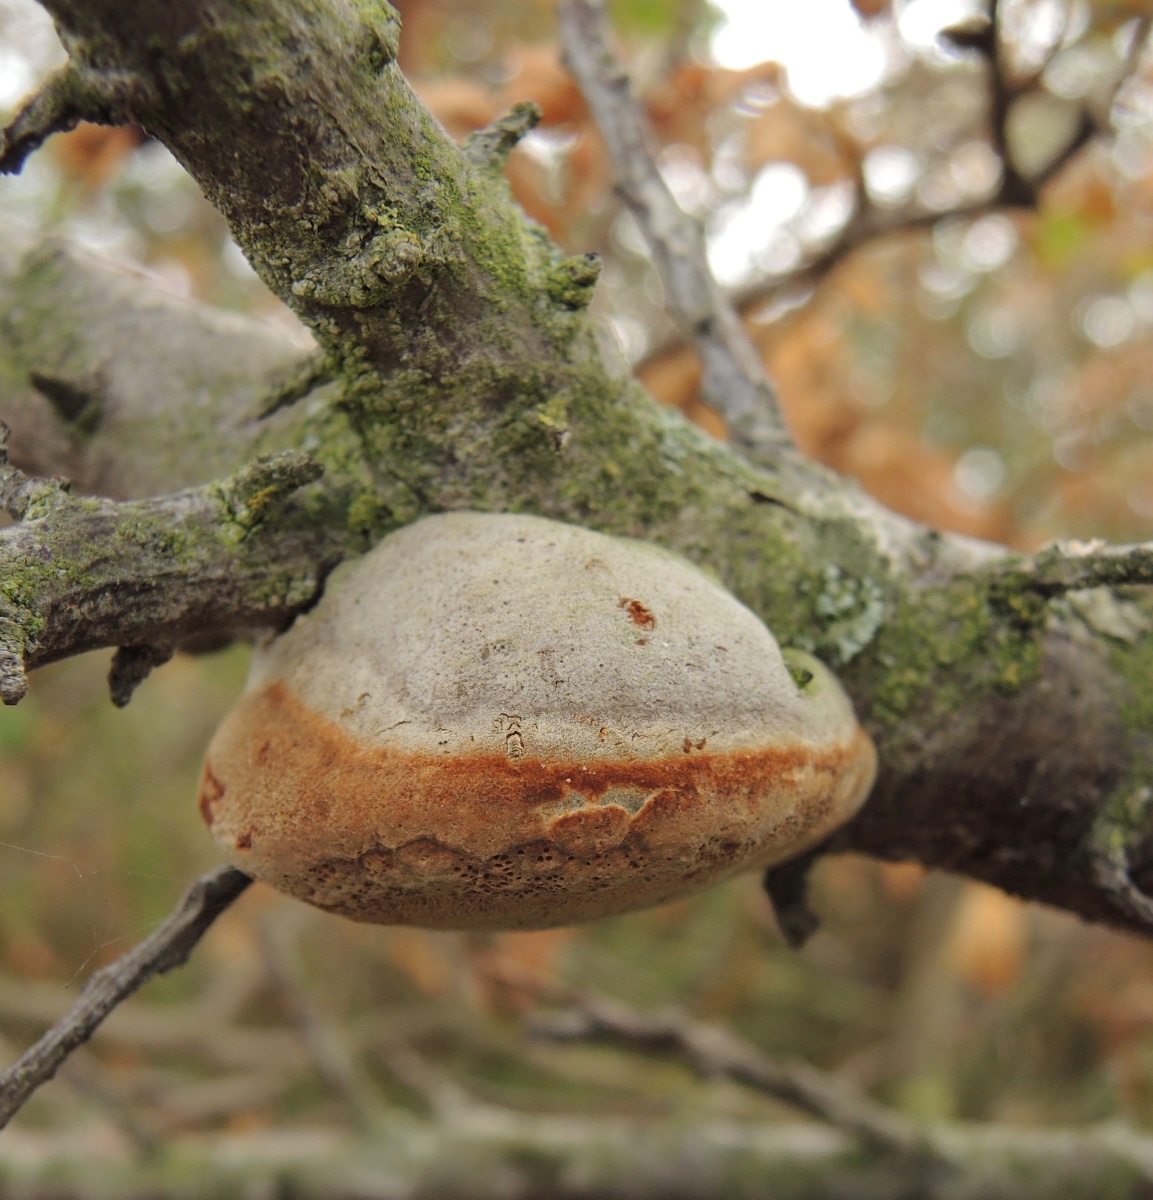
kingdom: Fungi
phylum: Basidiomycota
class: Agaricomycetes
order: Hymenochaetales
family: Hymenochaetaceae
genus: Fomitiporia
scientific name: Fomitiporia hippophaeicola
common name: havtorn-ildporesvamp
